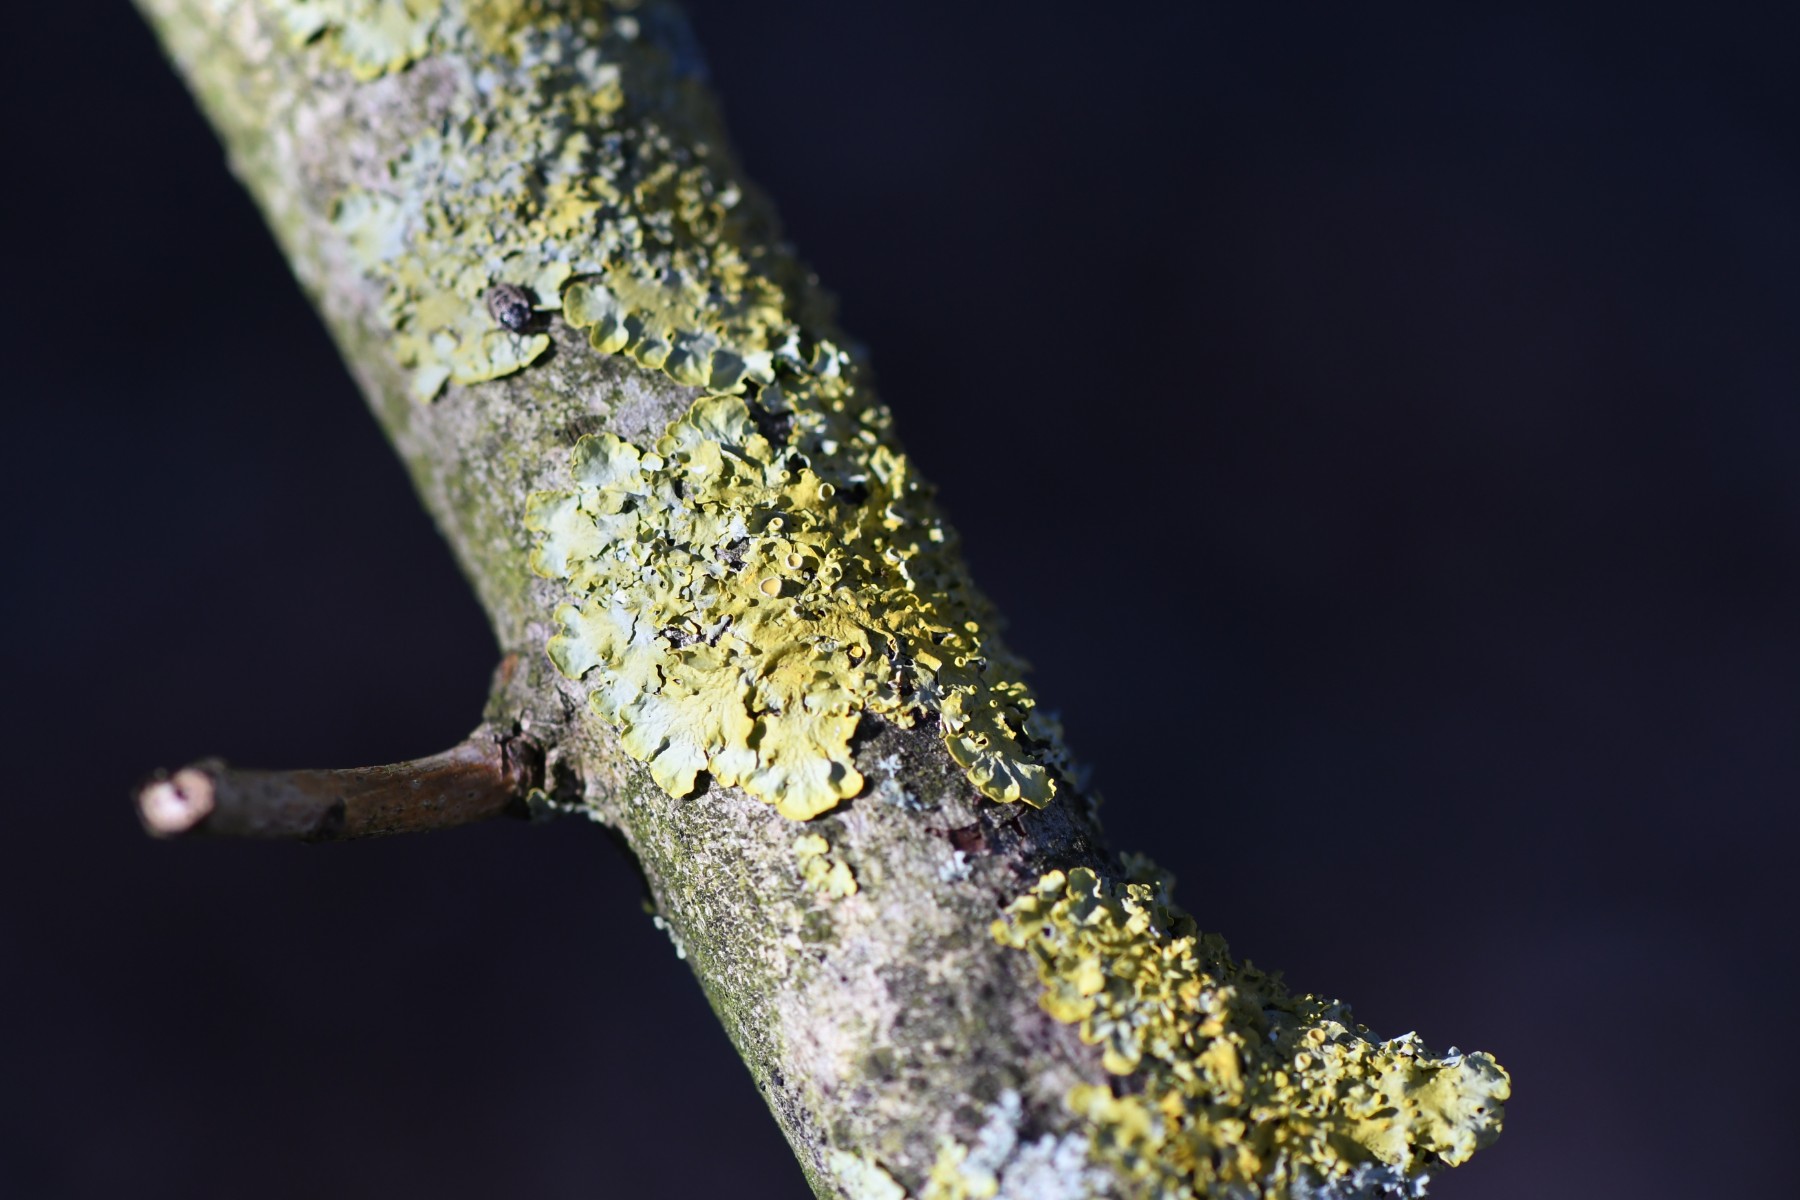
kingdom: Fungi
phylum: Ascomycota
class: Lecanoromycetes
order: Teloschistales
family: Teloschistaceae
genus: Xanthoria
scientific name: Xanthoria parietina
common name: almindelig væggelav
